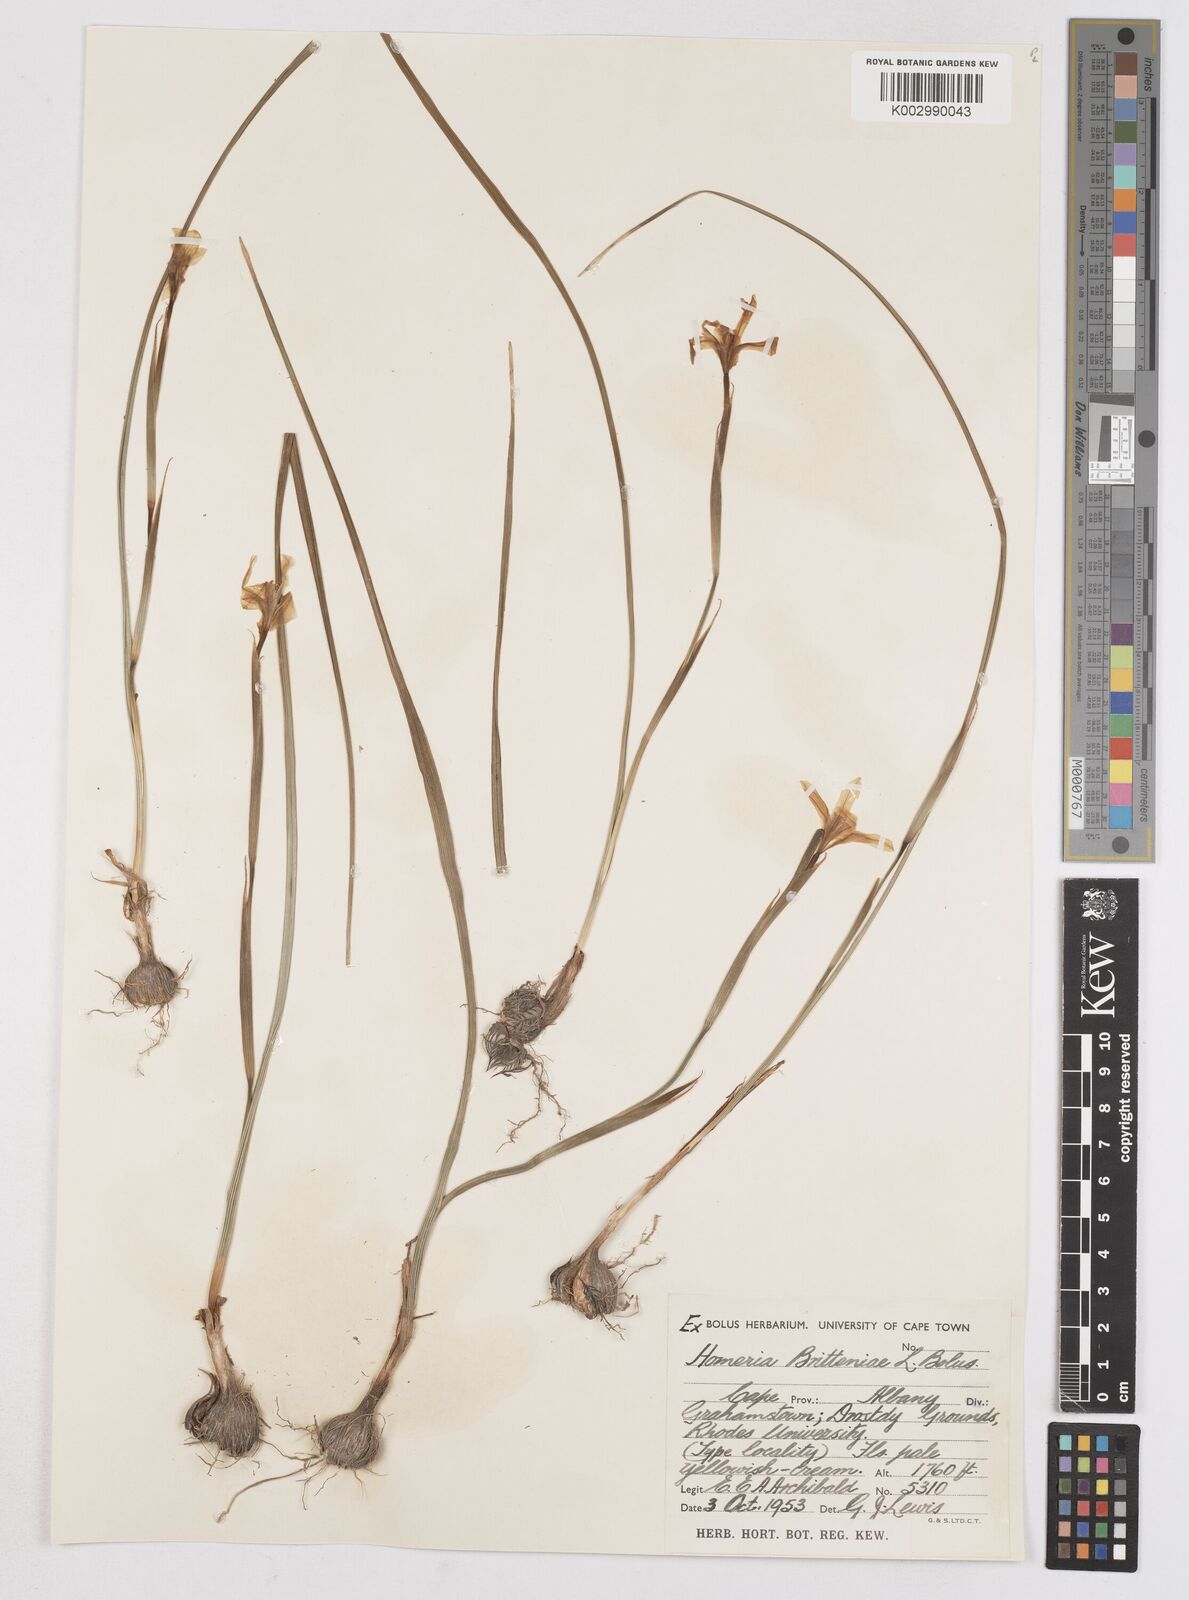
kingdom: Plantae
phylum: Tracheophyta
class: Liliopsida
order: Asparagales
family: Iridaceae
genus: Moraea
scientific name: Moraea britteniae
